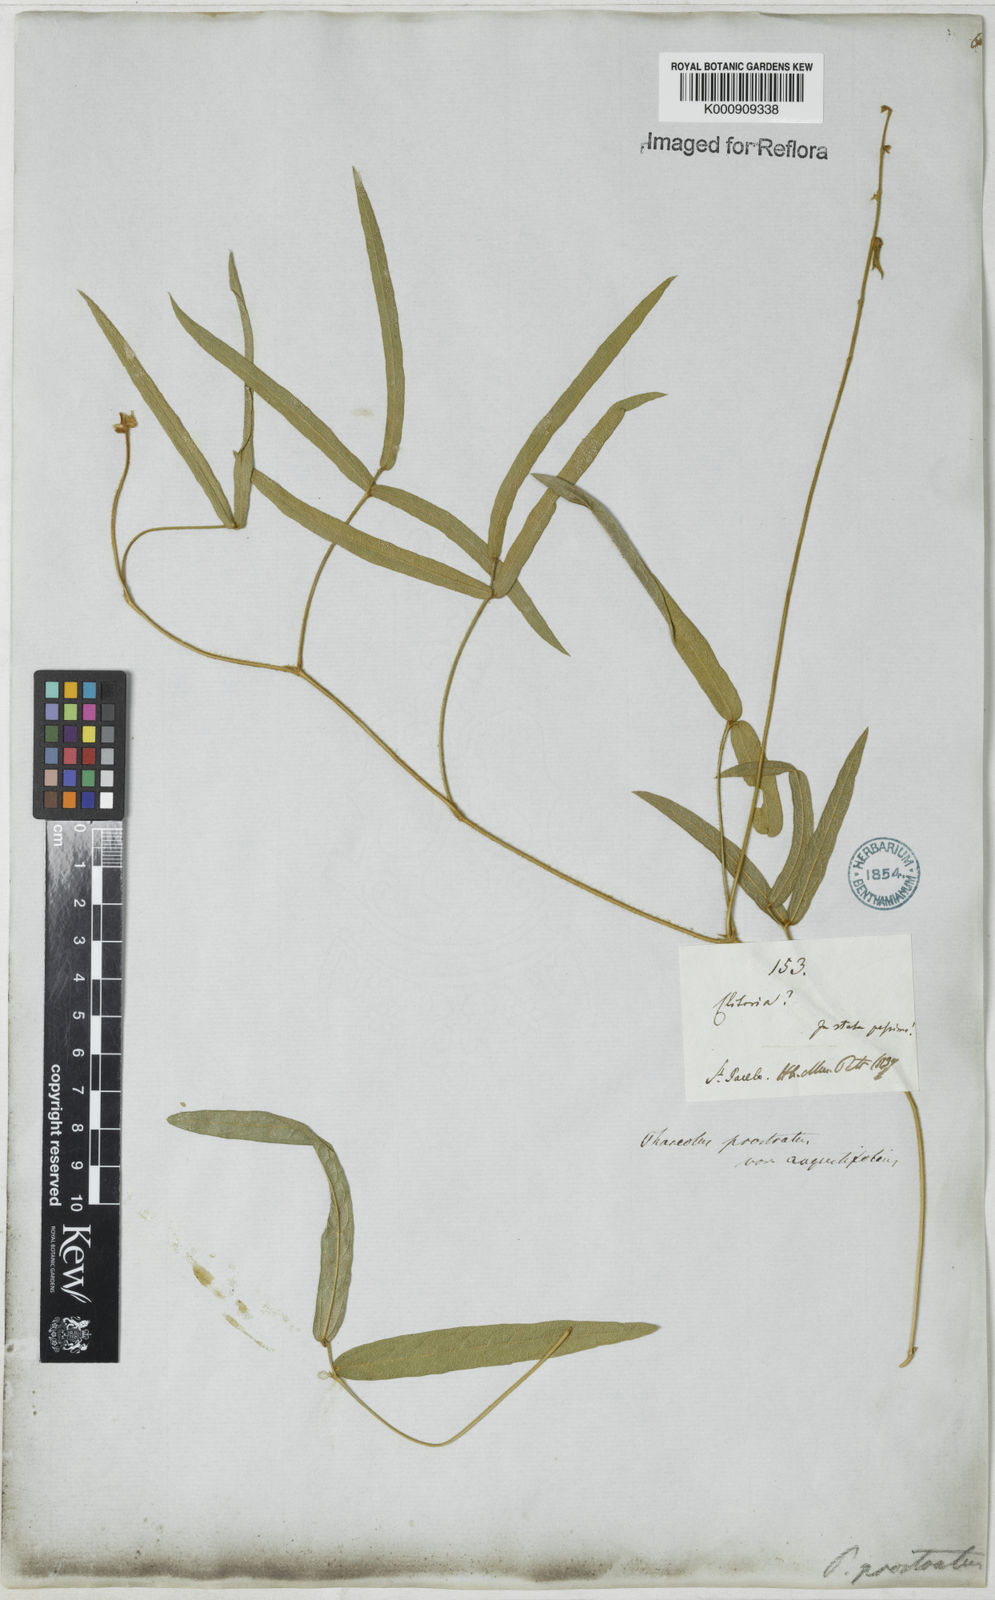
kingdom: Plantae
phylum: Tracheophyta
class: Magnoliopsida
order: Fabales
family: Fabaceae
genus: Macroptilium
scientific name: Macroptilium prostratum
